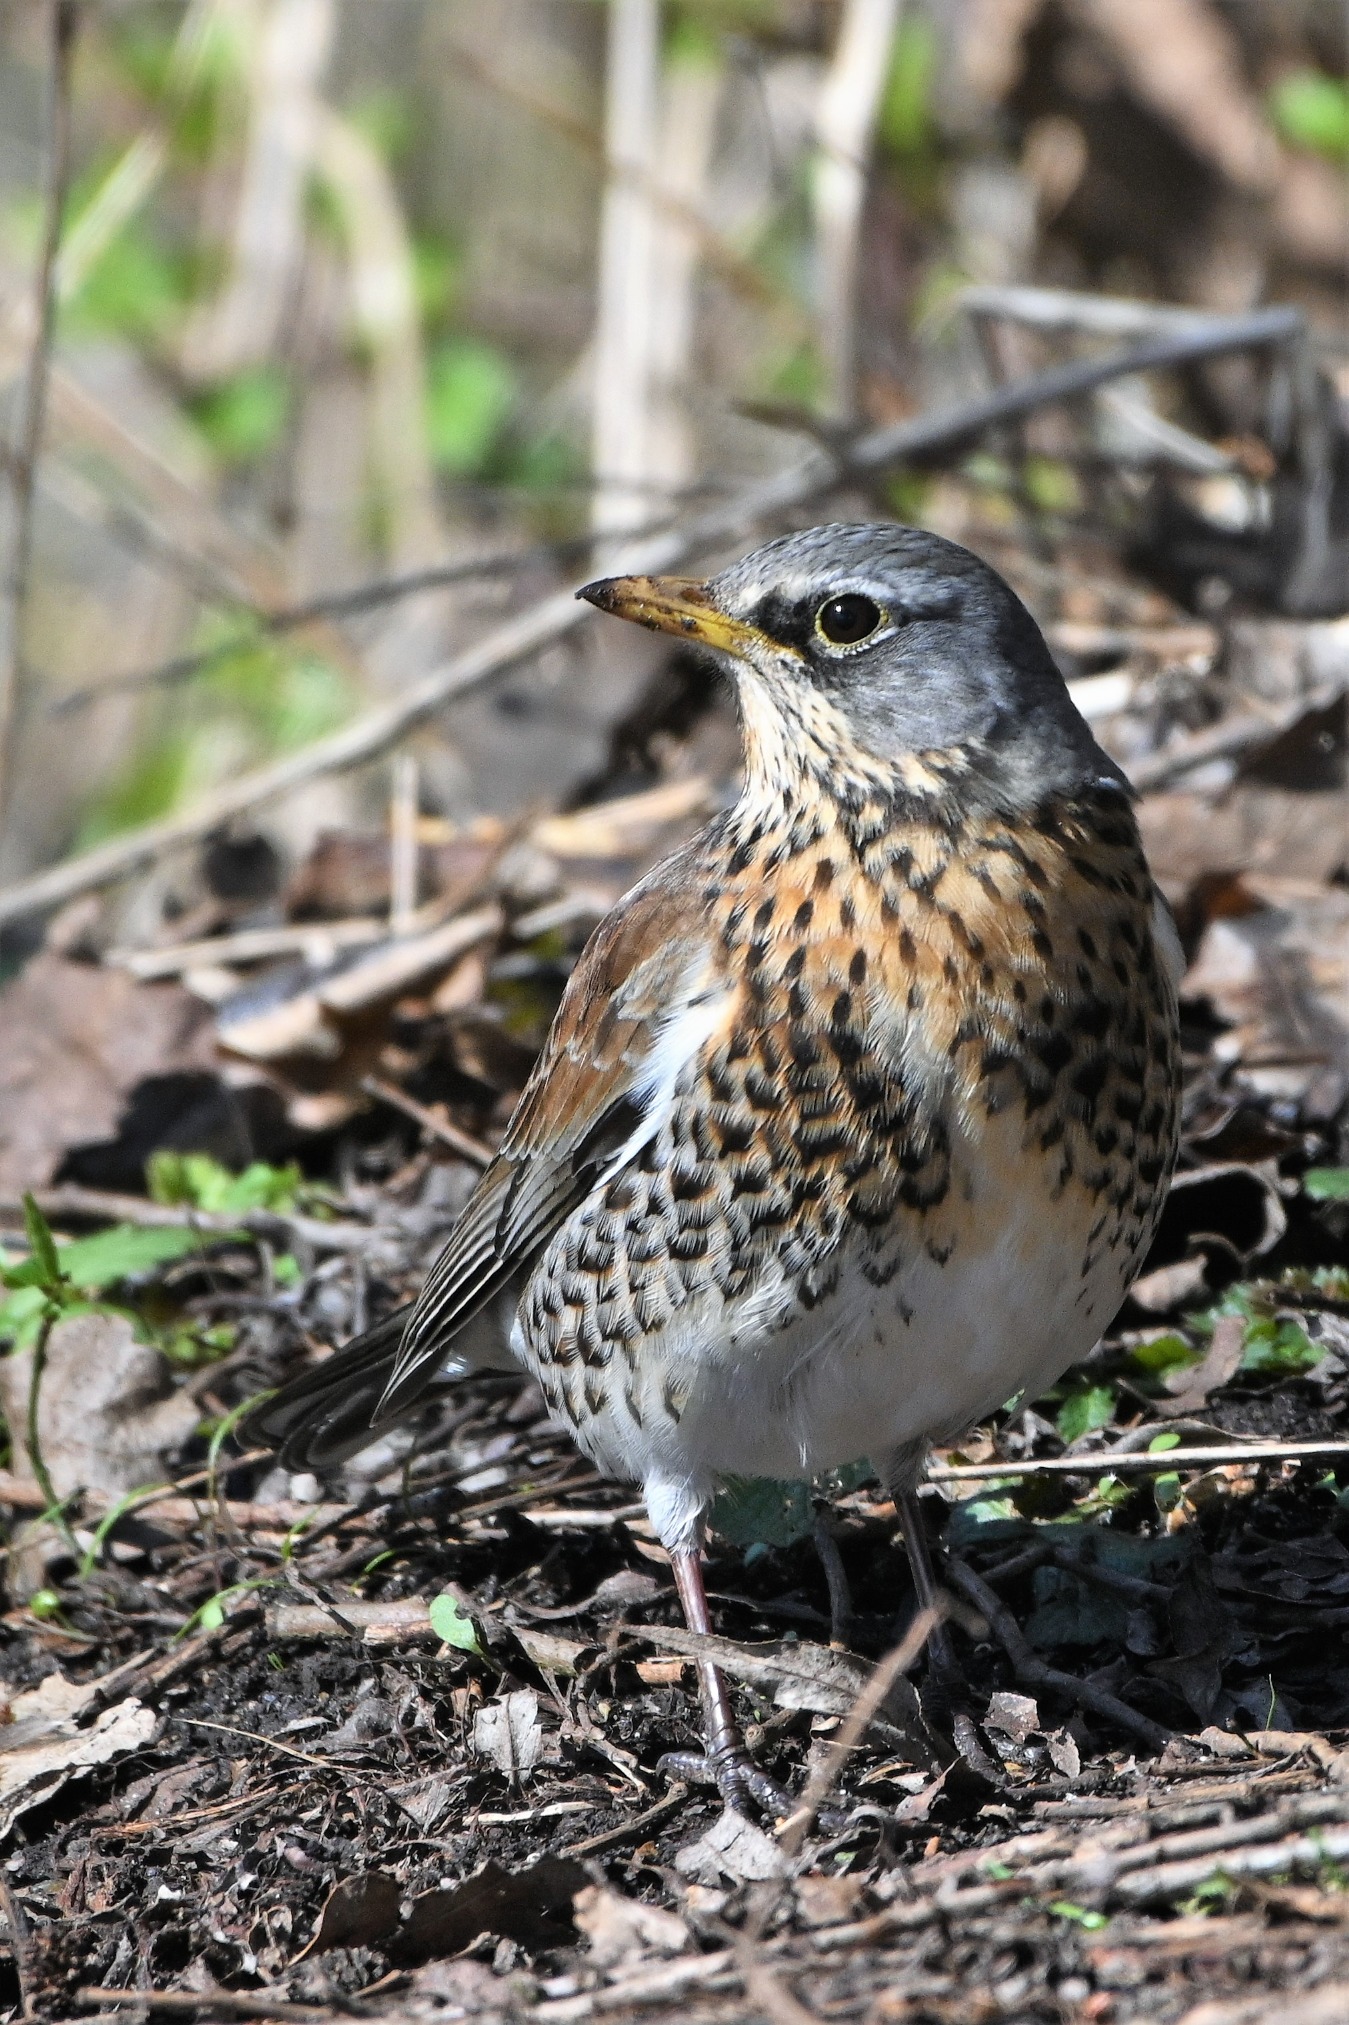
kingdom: Animalia
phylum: Chordata
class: Aves
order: Passeriformes
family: Turdidae
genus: Turdus
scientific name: Turdus pilaris
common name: Sjagger
